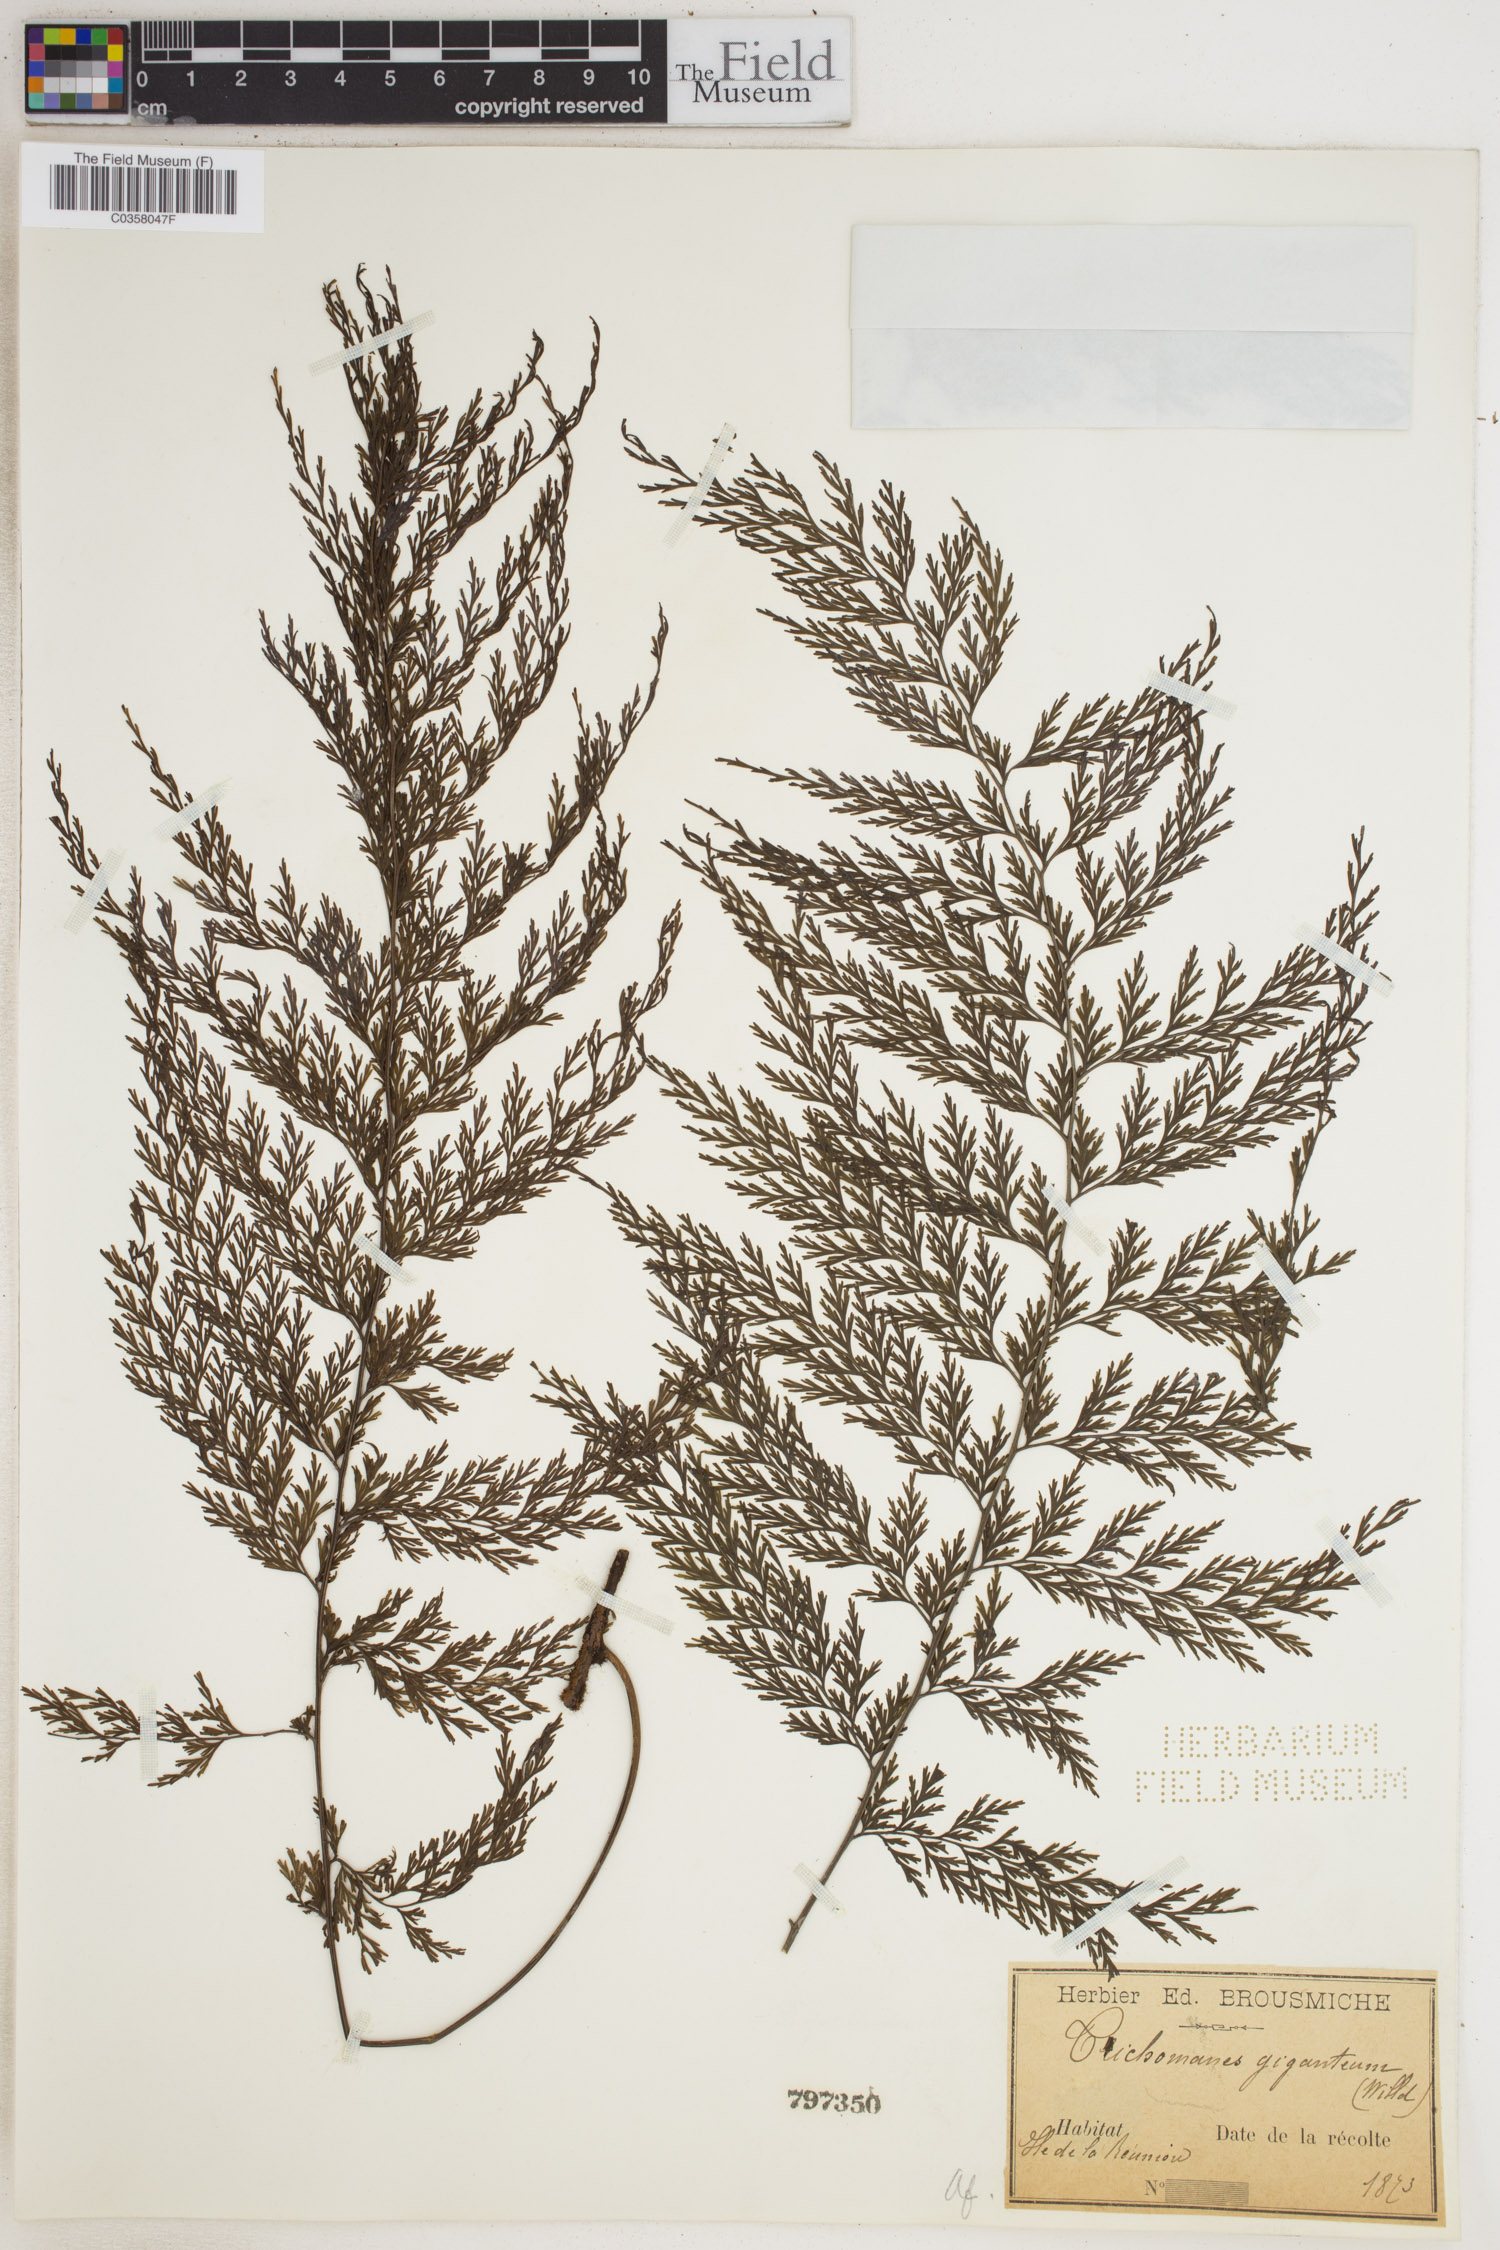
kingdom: Plantae
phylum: Tracheophyta
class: Polypodiopsida
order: Hymenophyllales
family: Hymenophyllaceae
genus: Vandenboschia
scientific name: Vandenboschia gigantea
